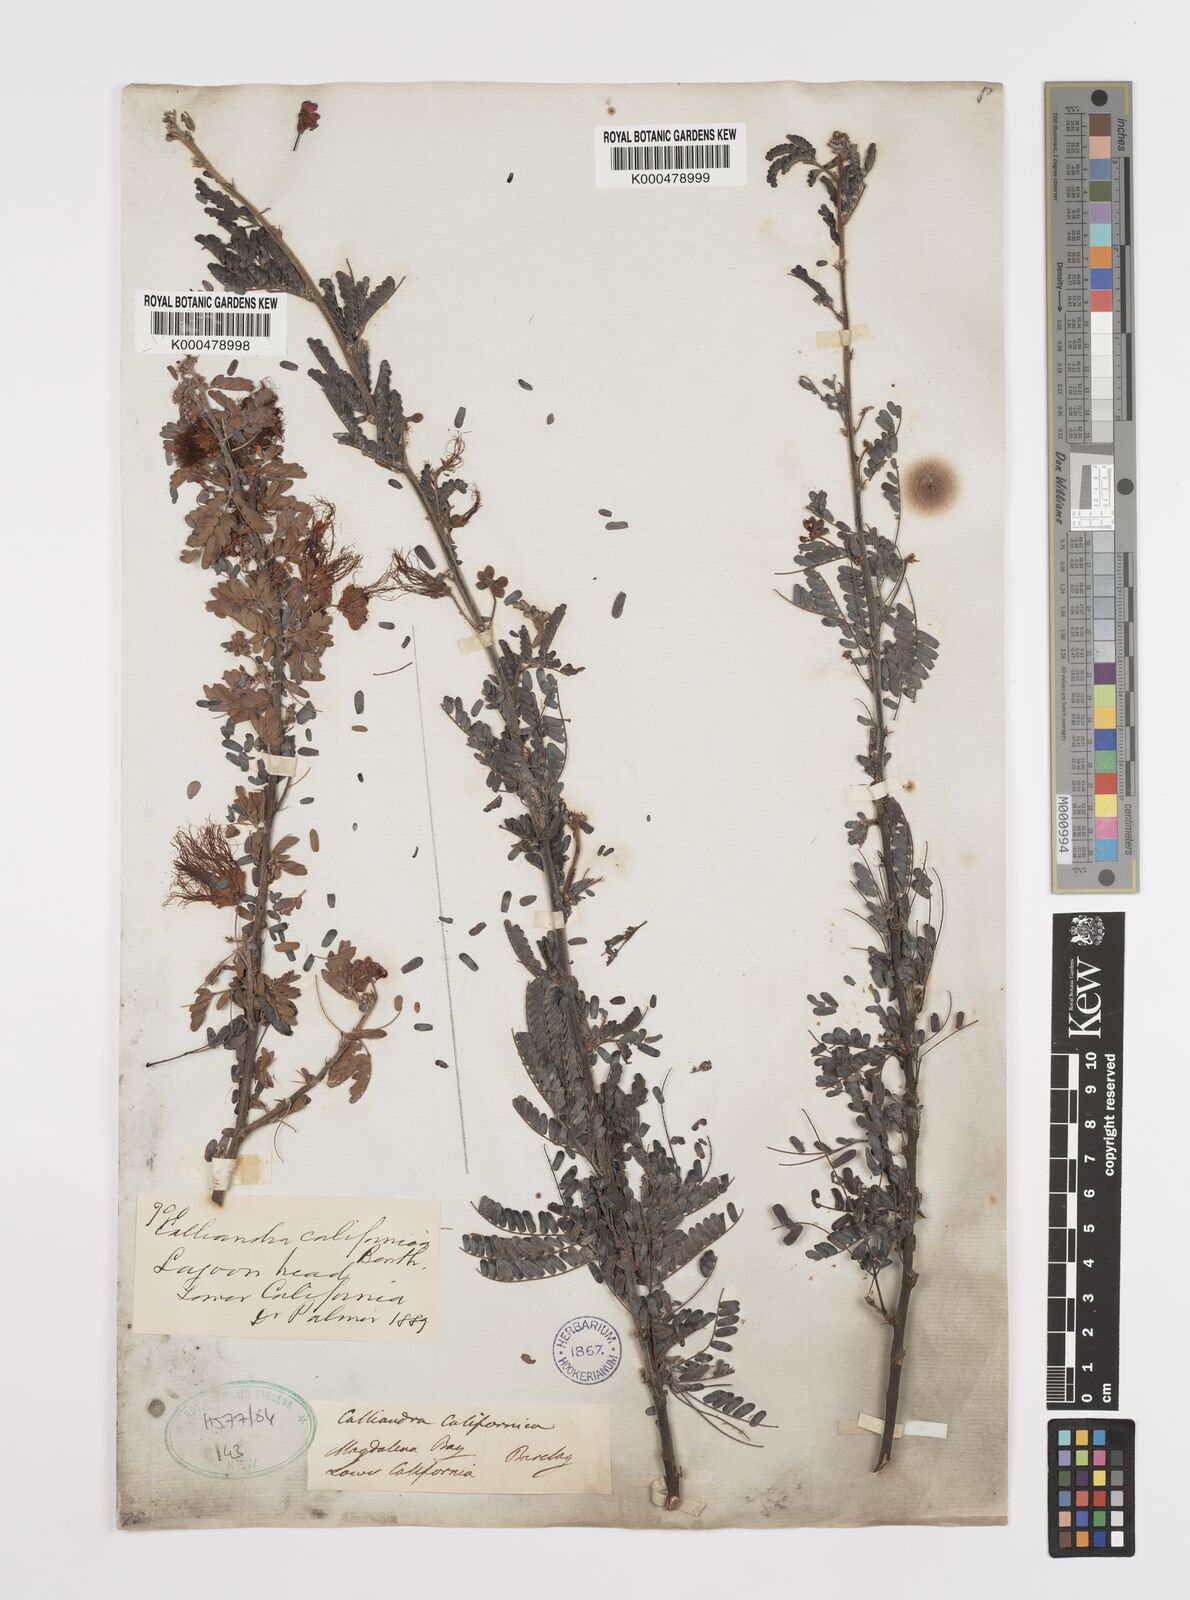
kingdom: Plantae
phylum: Tracheophyta
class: Magnoliopsida
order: Fabales
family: Fabaceae
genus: Calliandra
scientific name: Calliandra californica
